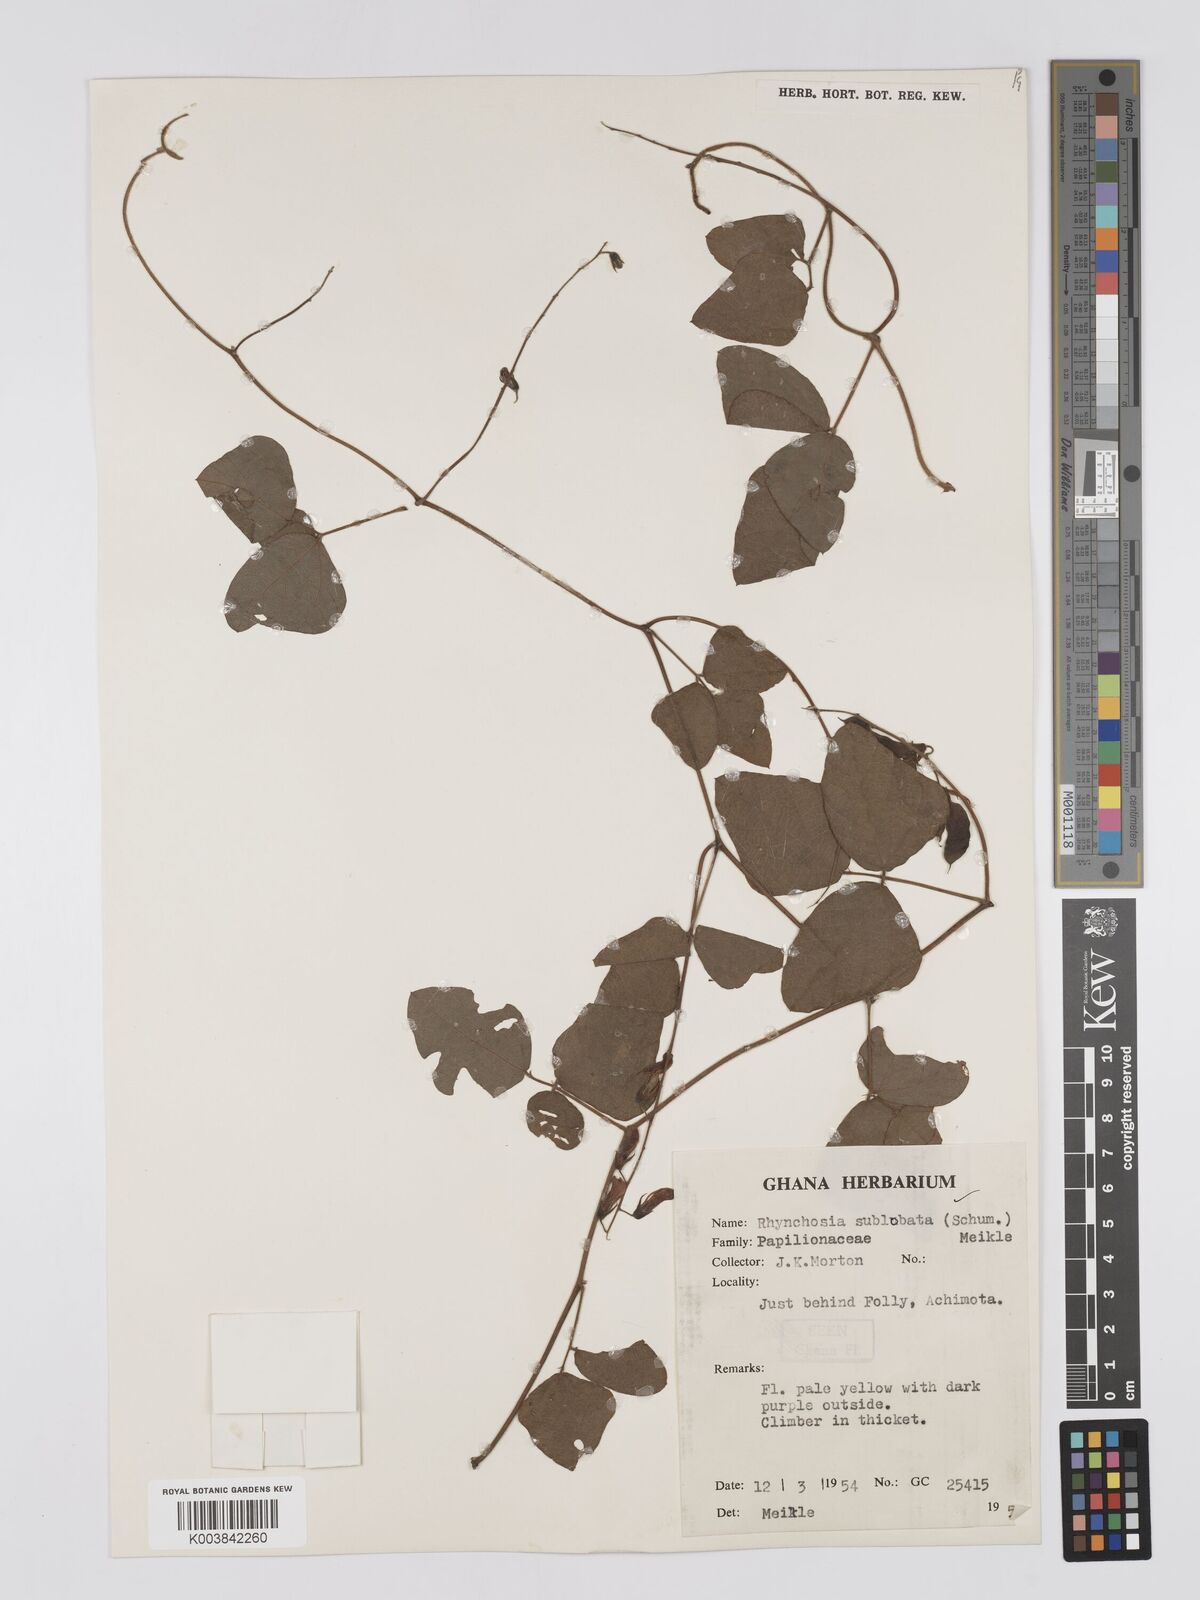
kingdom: Plantae
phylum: Tracheophyta
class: Magnoliopsida
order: Fabales
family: Fabaceae
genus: Rhynchosia
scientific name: Rhynchosia sublobata
